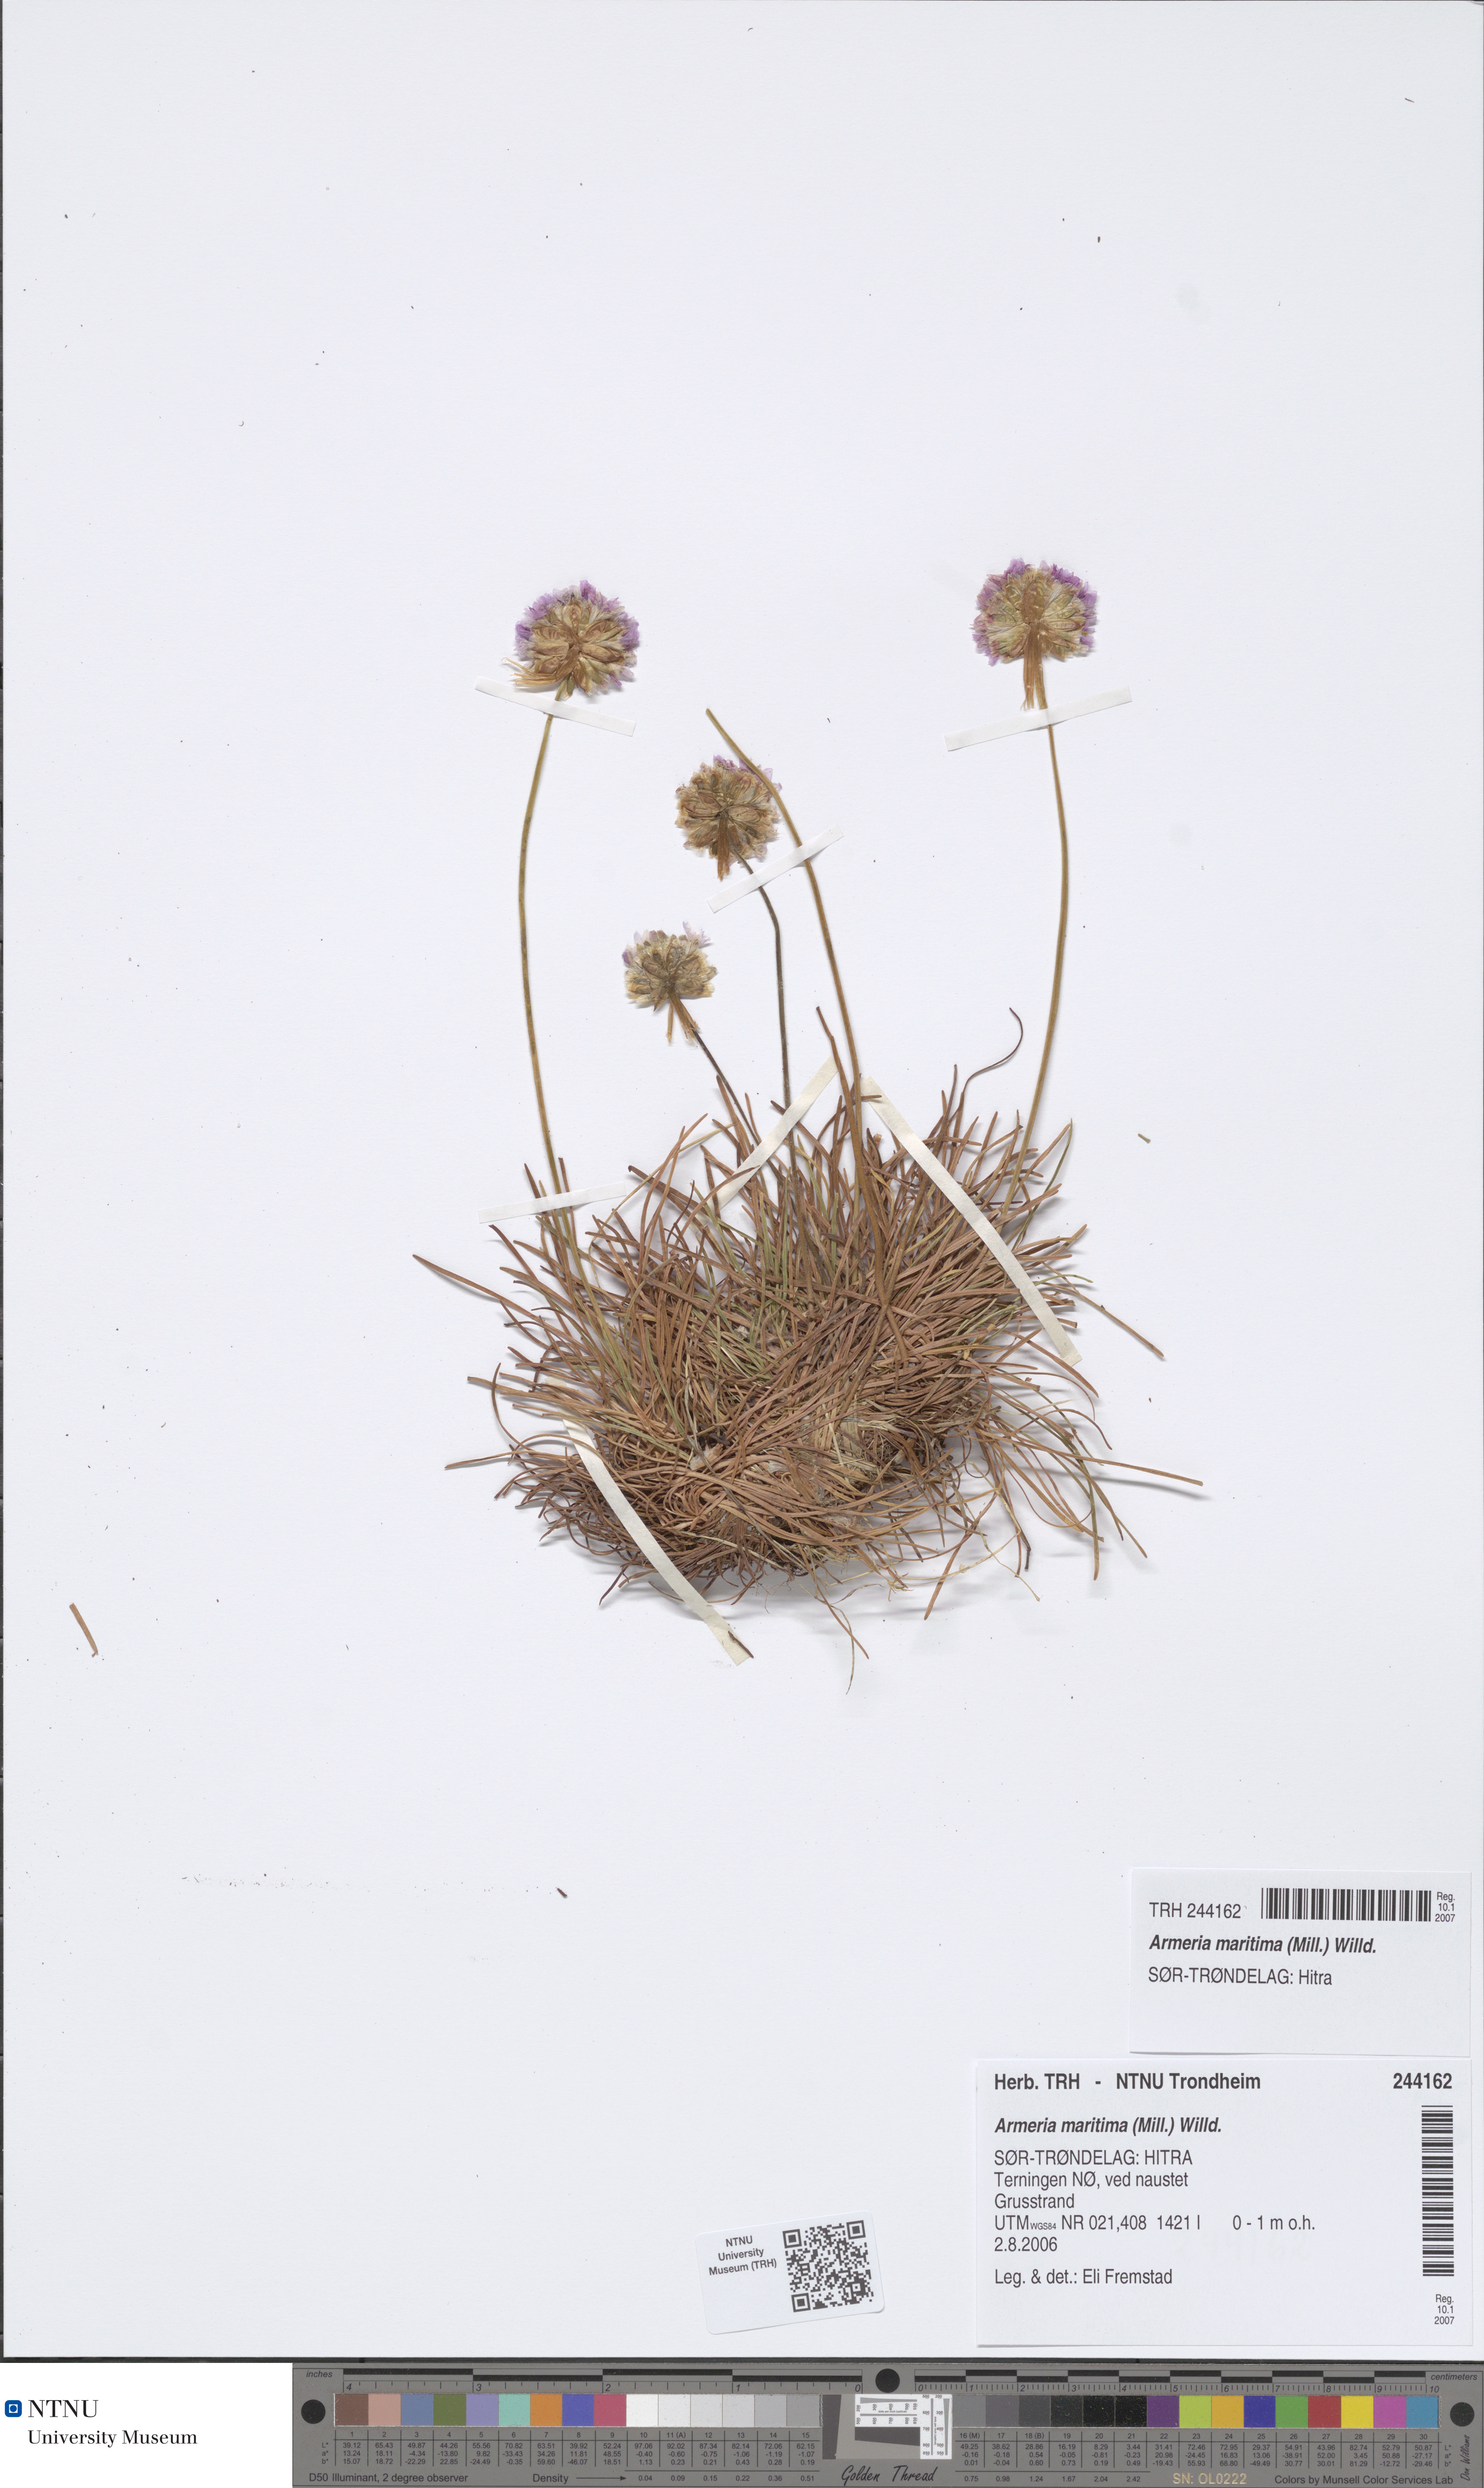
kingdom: Plantae
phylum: Tracheophyta
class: Magnoliopsida
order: Caryophyllales
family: Plumbaginaceae
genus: Armeria
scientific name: Armeria maritima
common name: Thrift
